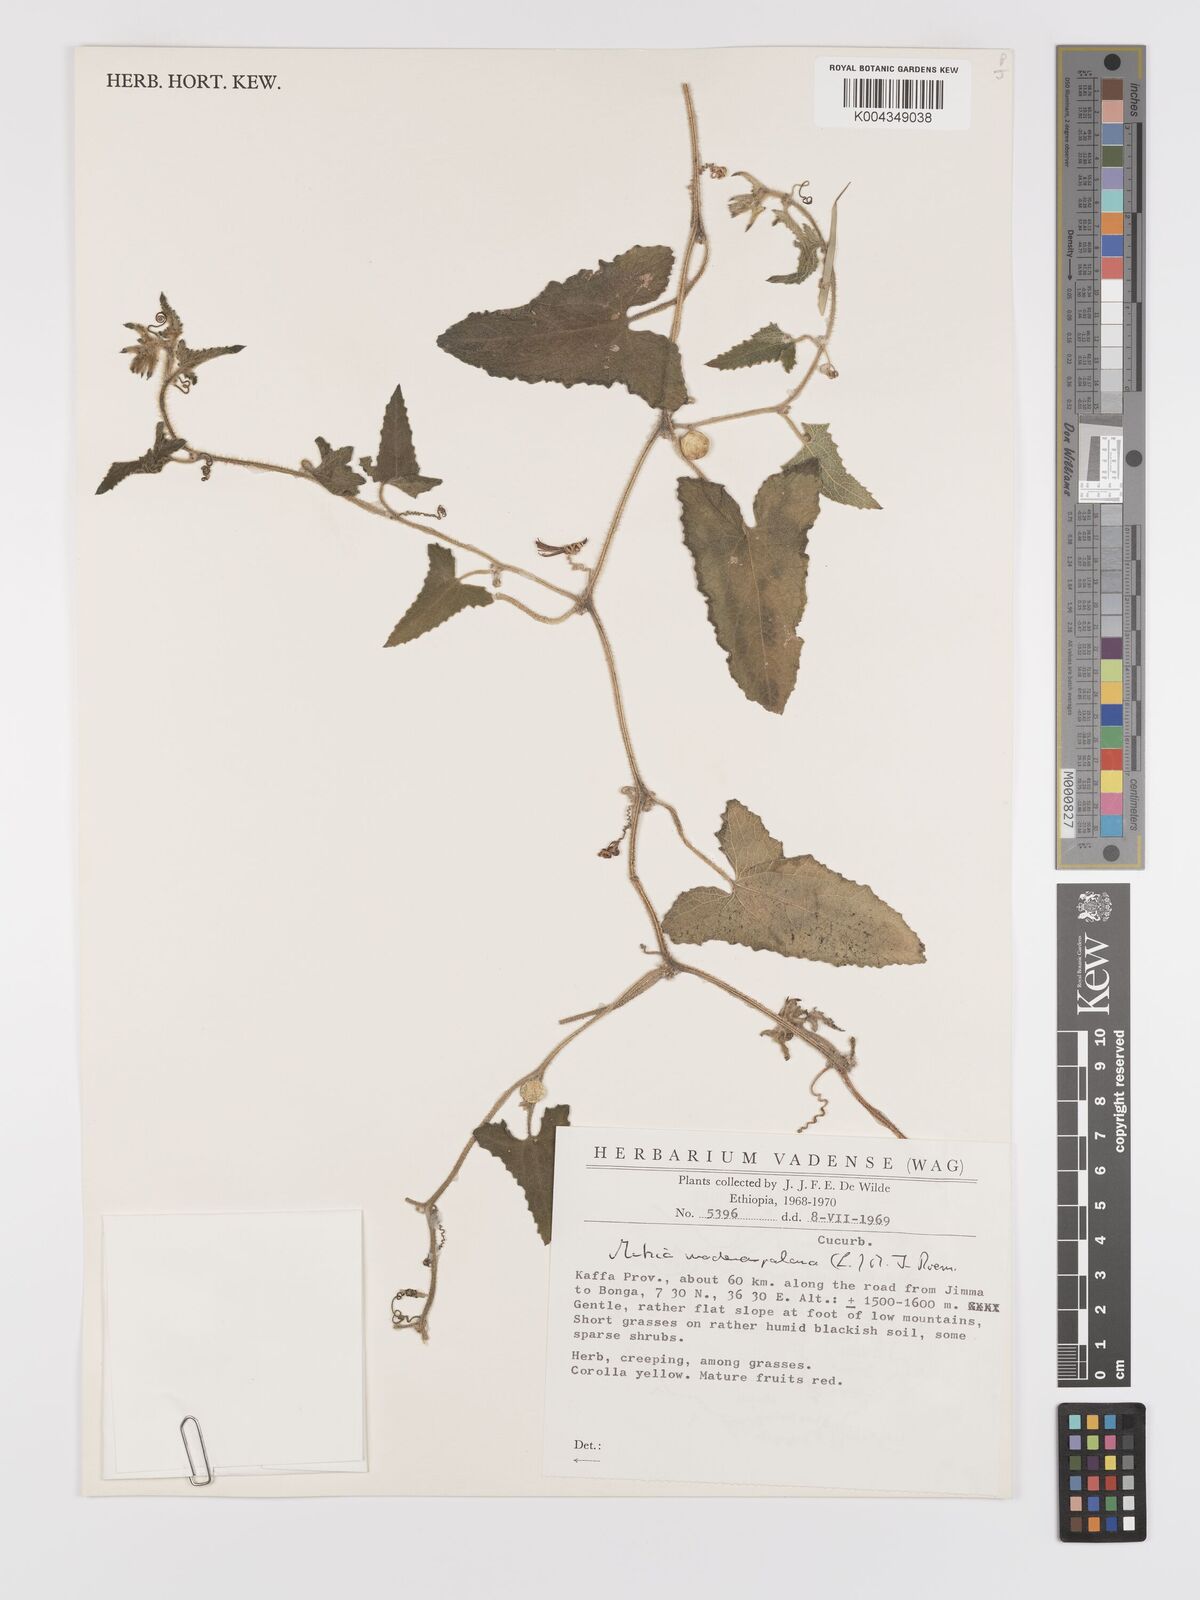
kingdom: Plantae
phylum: Tracheophyta
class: Magnoliopsida
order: Cucurbitales
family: Cucurbitaceae
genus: Cucumis
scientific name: Cucumis maderaspatanus
